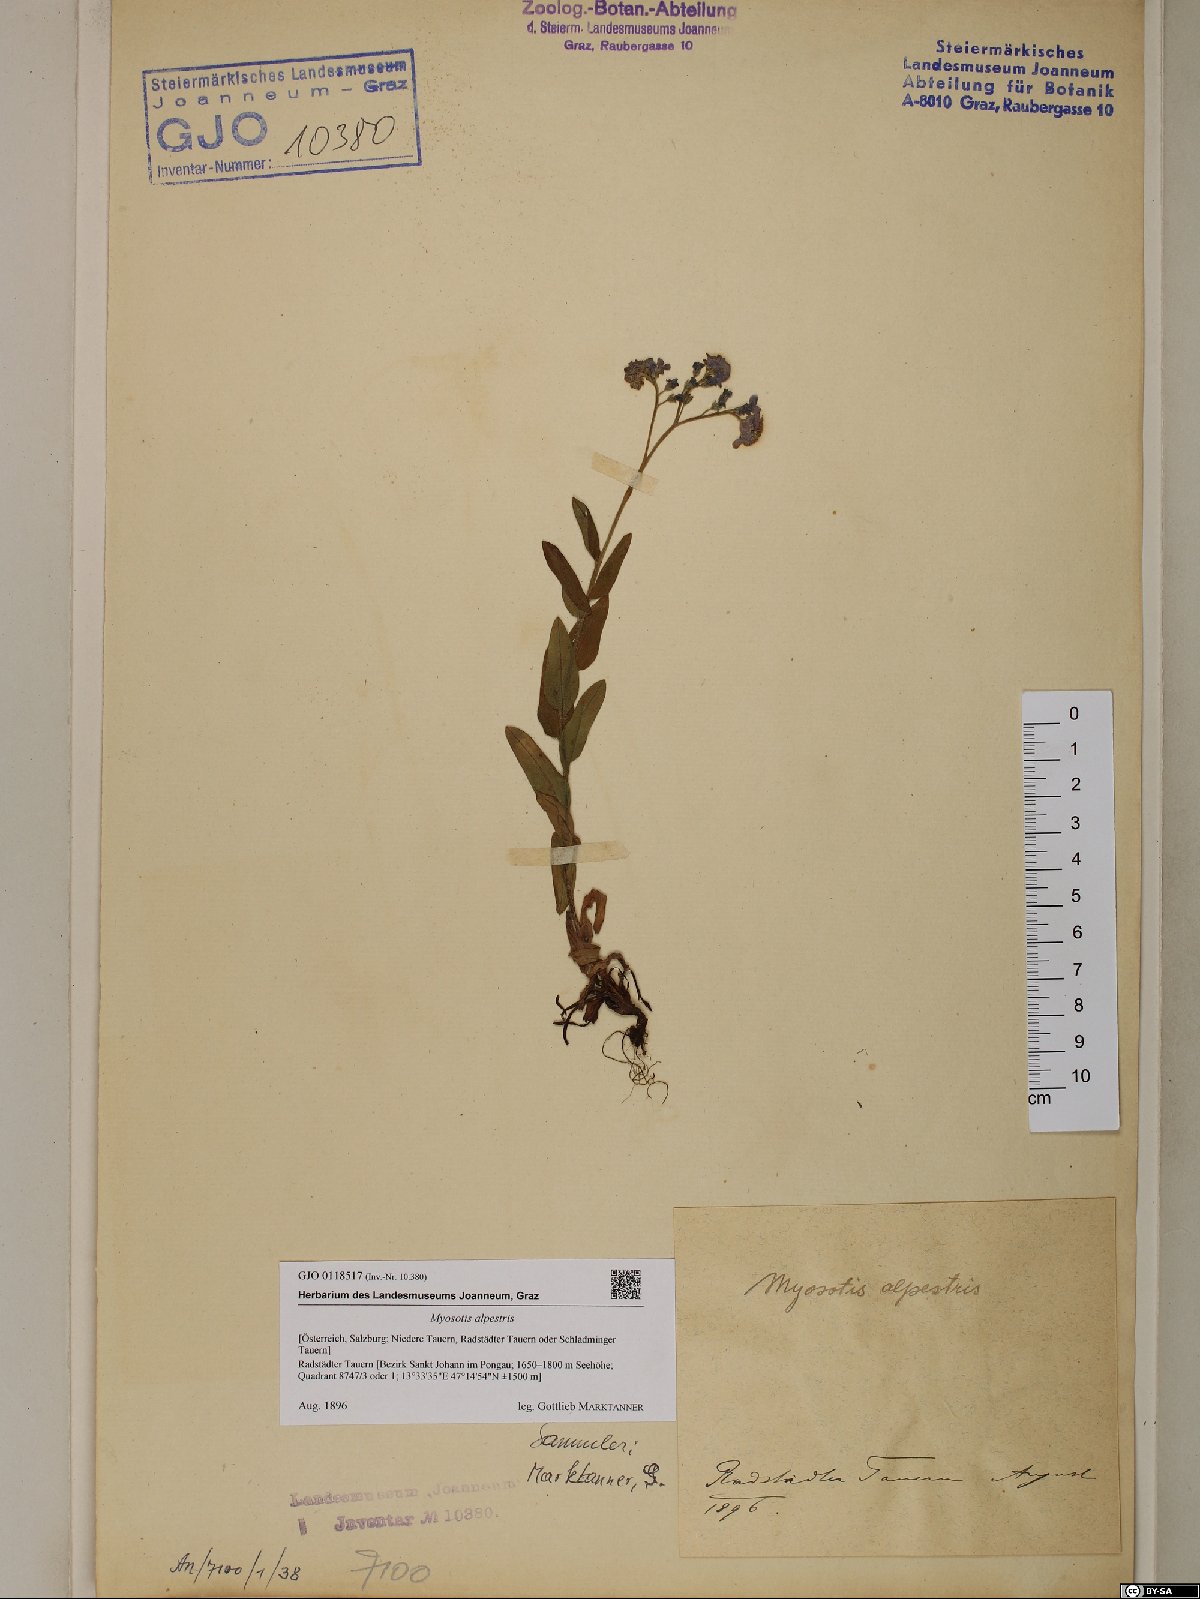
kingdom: Plantae
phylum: Tracheophyta
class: Magnoliopsida
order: Boraginales
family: Boraginaceae
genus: Myosotis
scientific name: Myosotis alpestris
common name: Alpine forget-me-not
